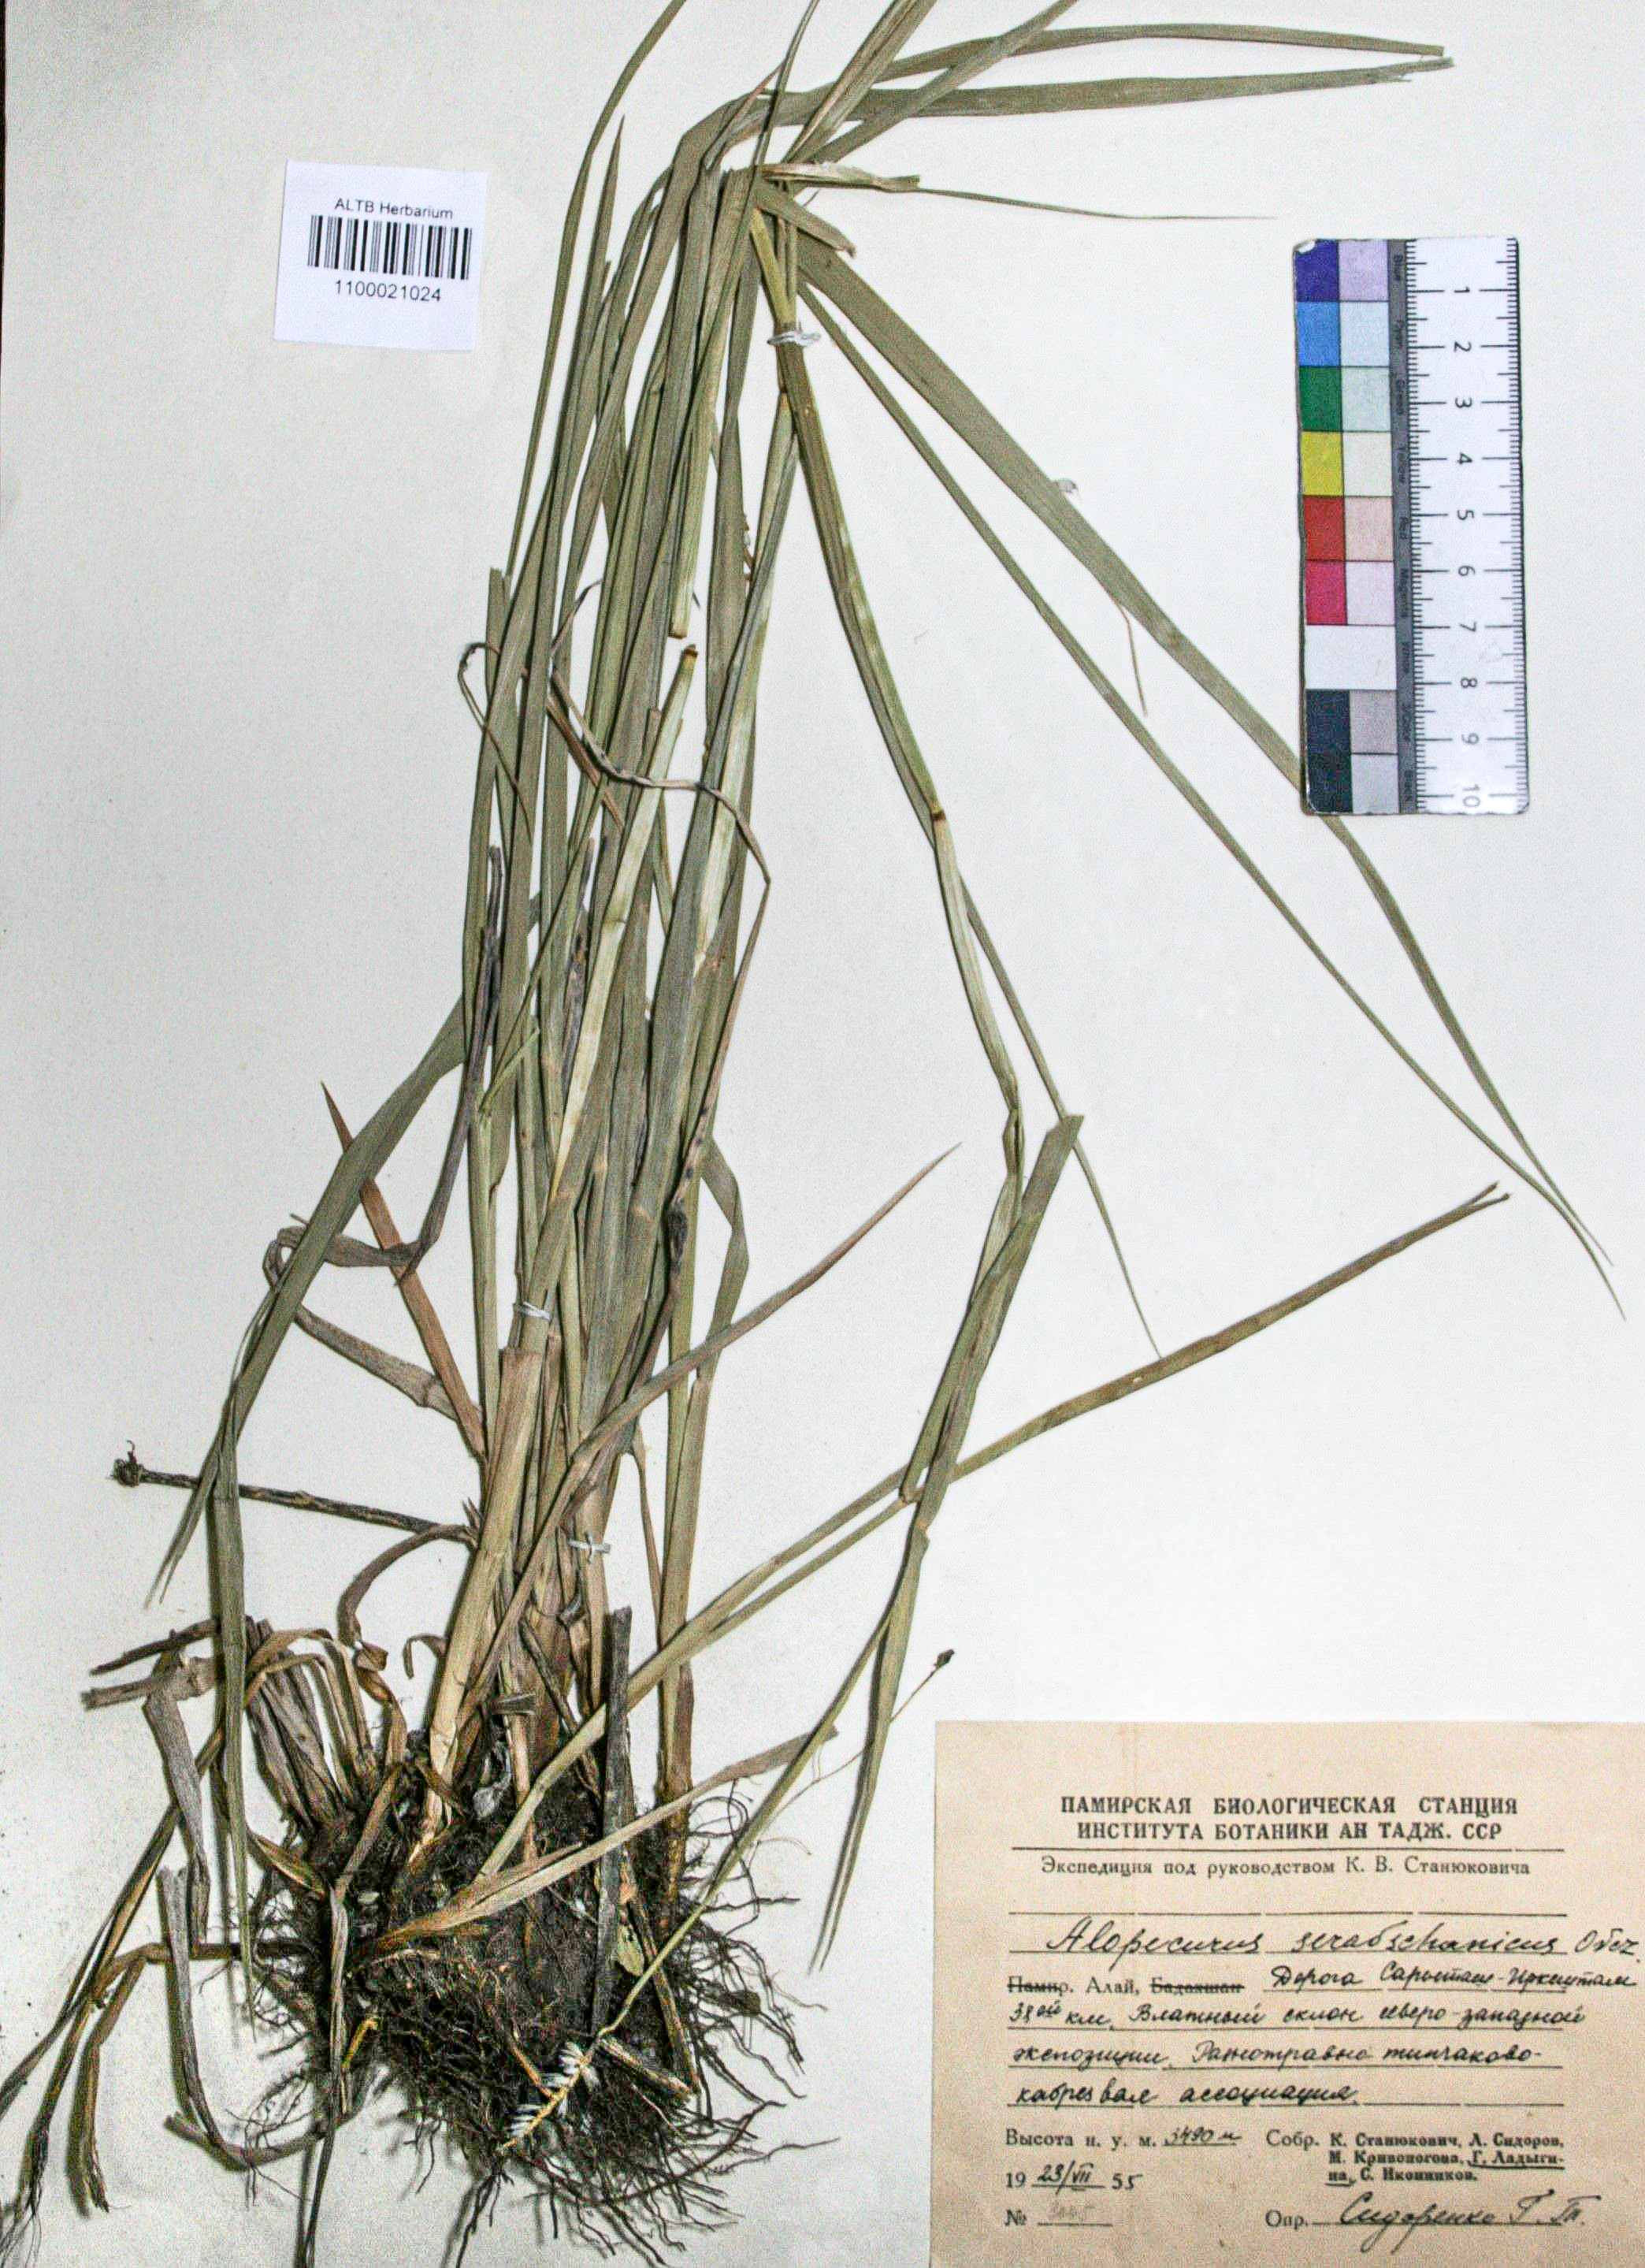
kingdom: Plantae
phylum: Tracheophyta
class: Liliopsida
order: Poales
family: Poaceae
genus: Alopecurus
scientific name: Alopecurus pratensis
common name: Meadow foxtail
